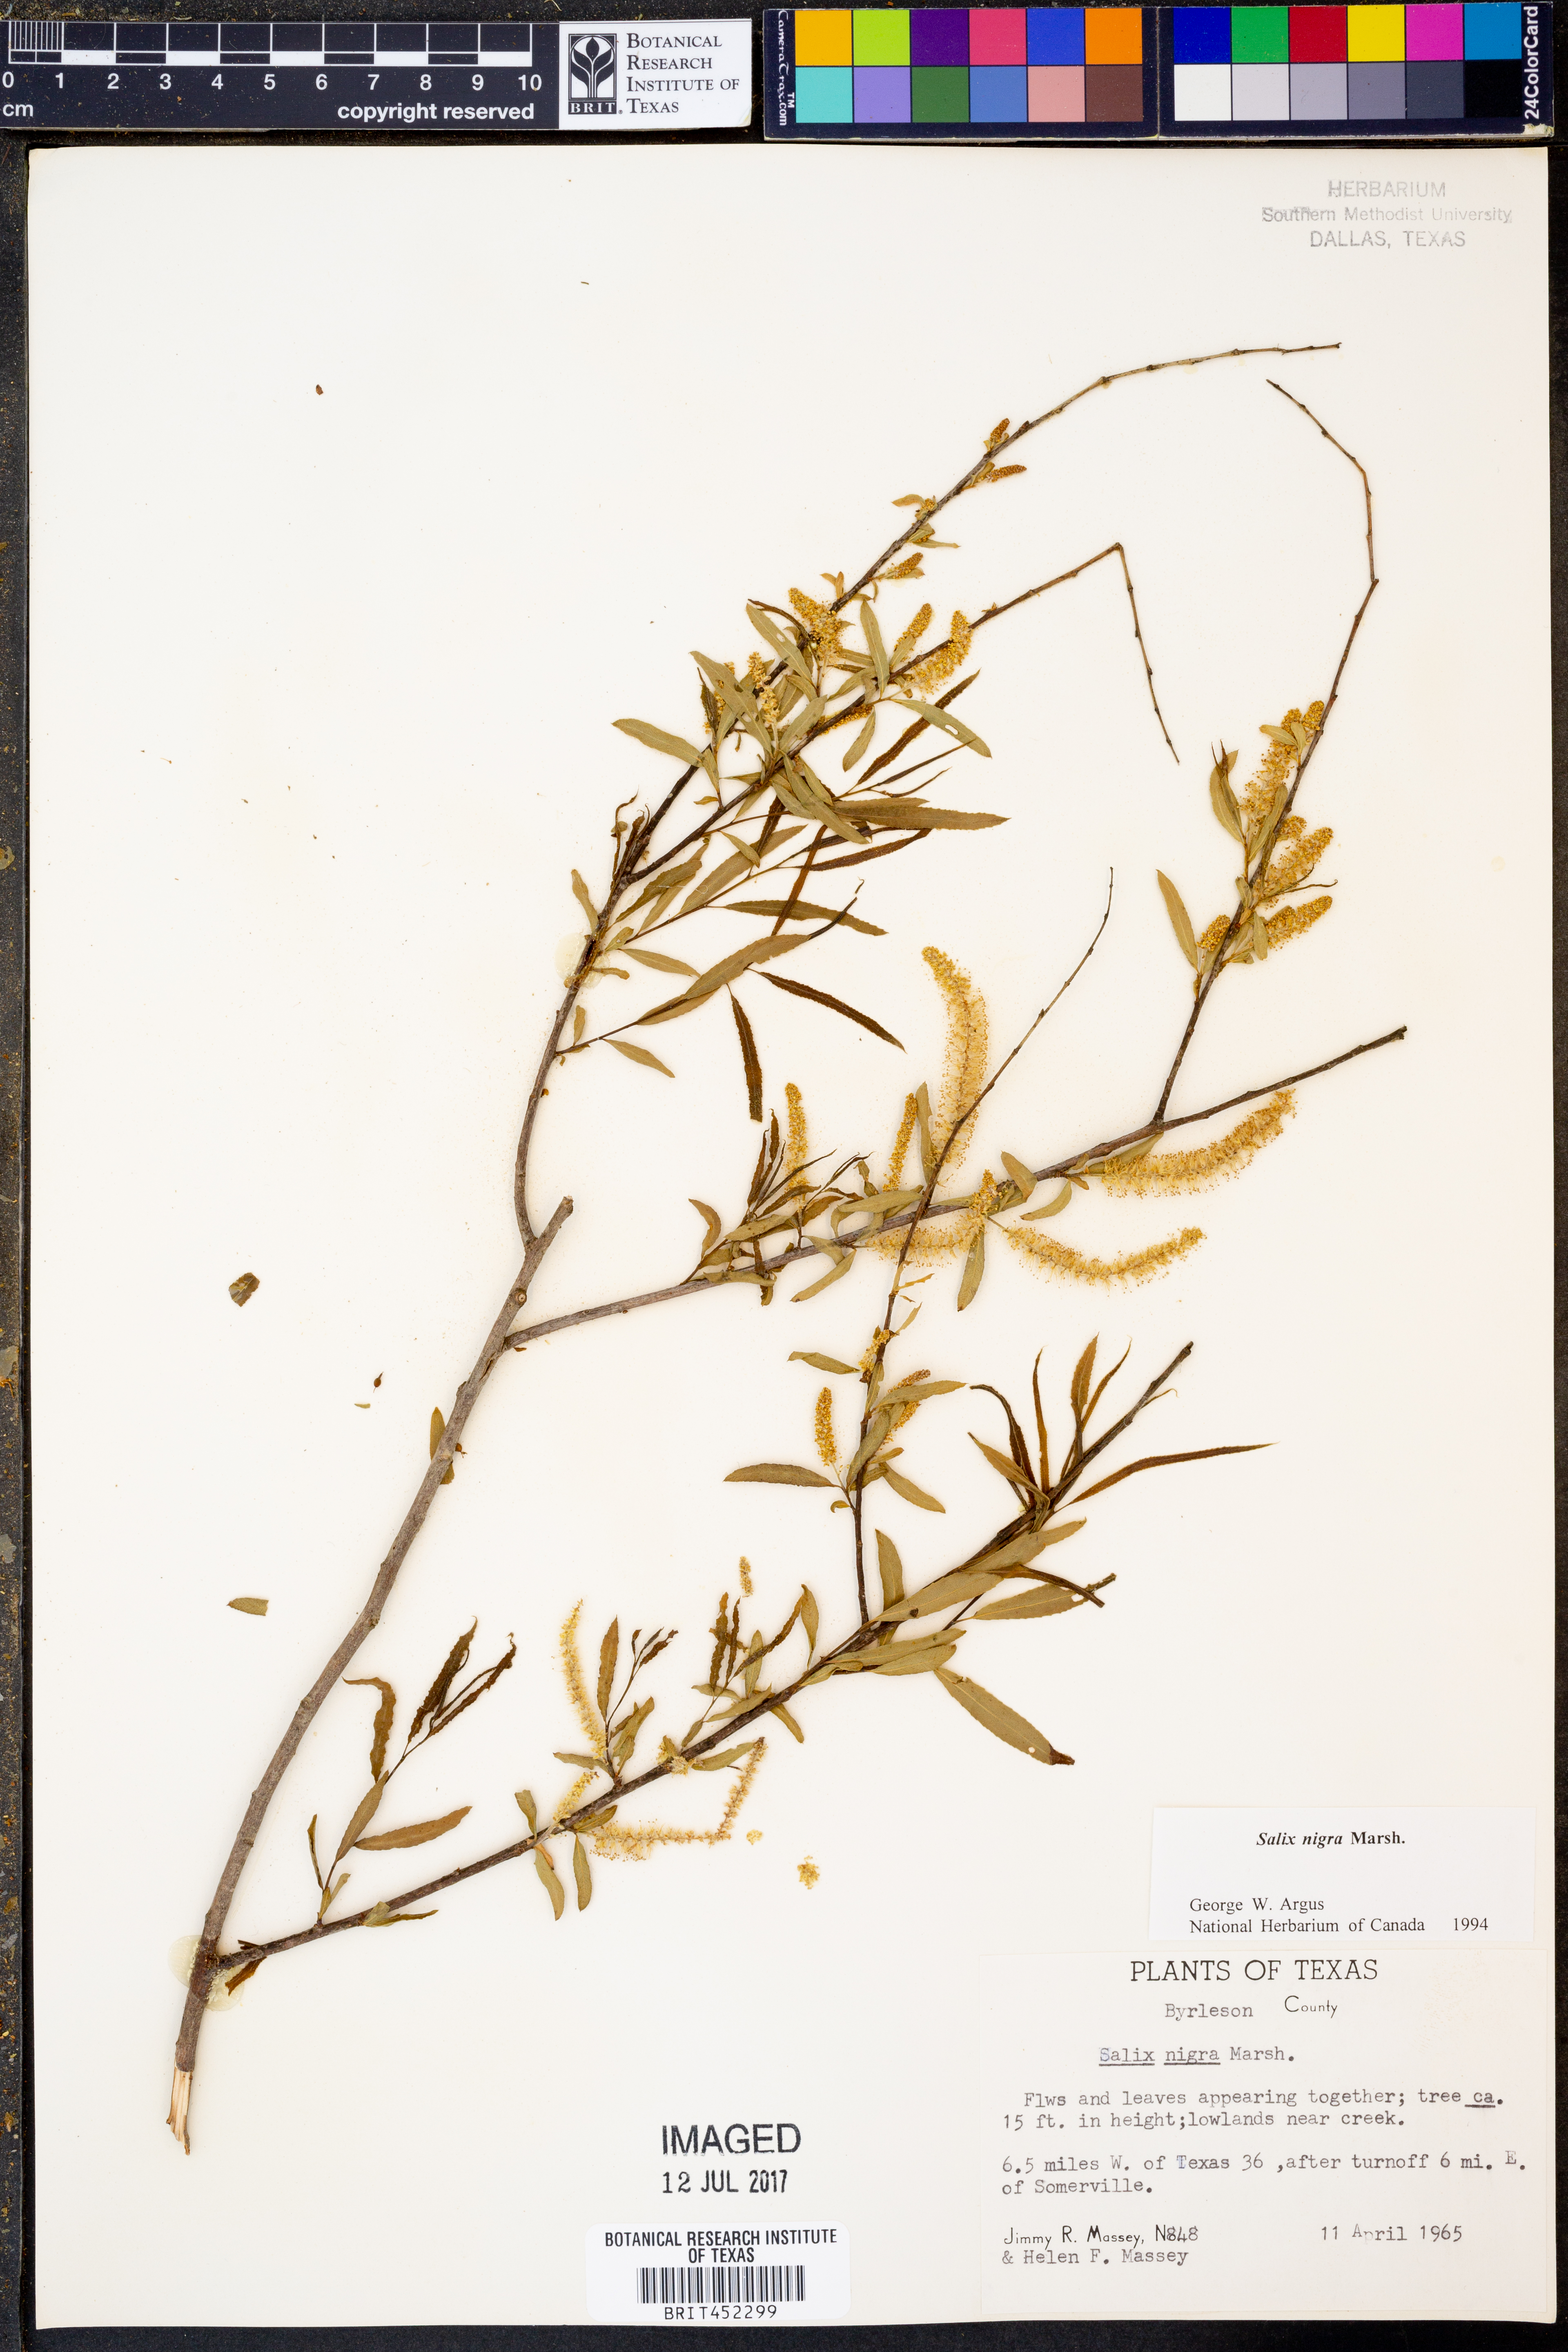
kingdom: Plantae
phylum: Tracheophyta
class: Magnoliopsida
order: Malpighiales
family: Salicaceae
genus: Salix
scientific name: Salix nigra
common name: Black willow
